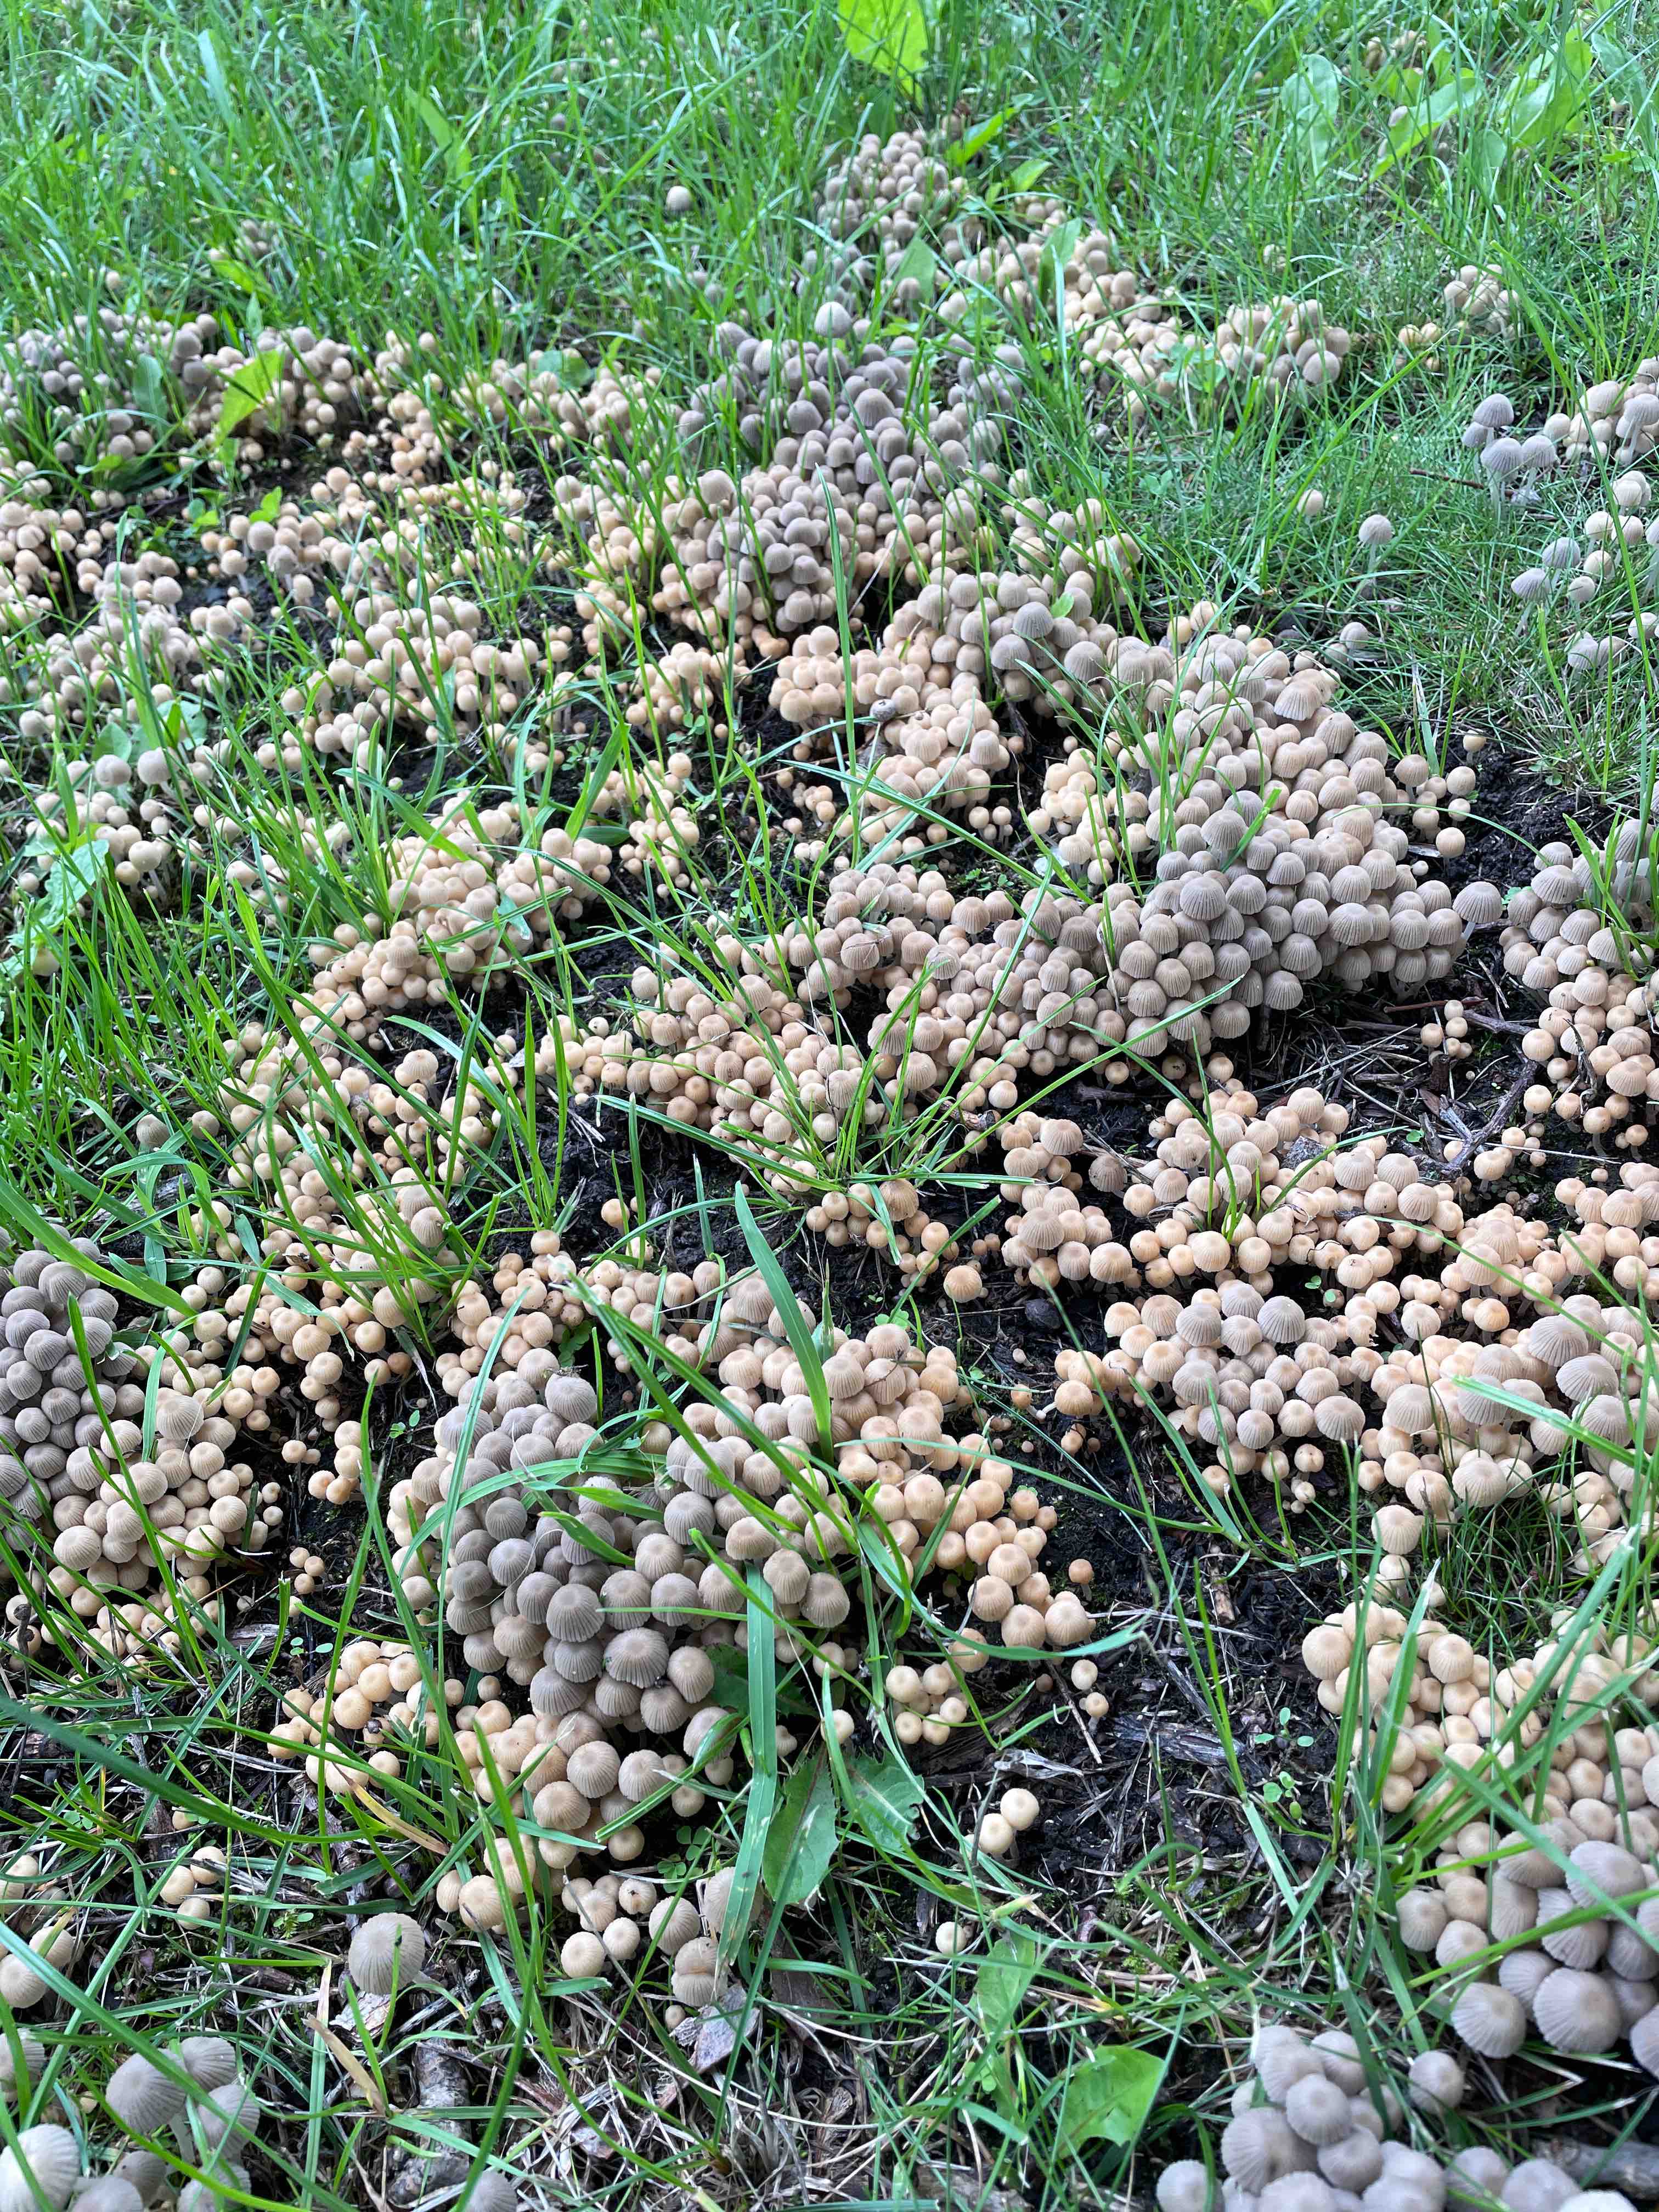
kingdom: Fungi
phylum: Basidiomycota
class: Agaricomycetes
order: Agaricales
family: Psathyrellaceae
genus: Coprinellus
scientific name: Coprinellus disseminatus
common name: bredsået blækhat
